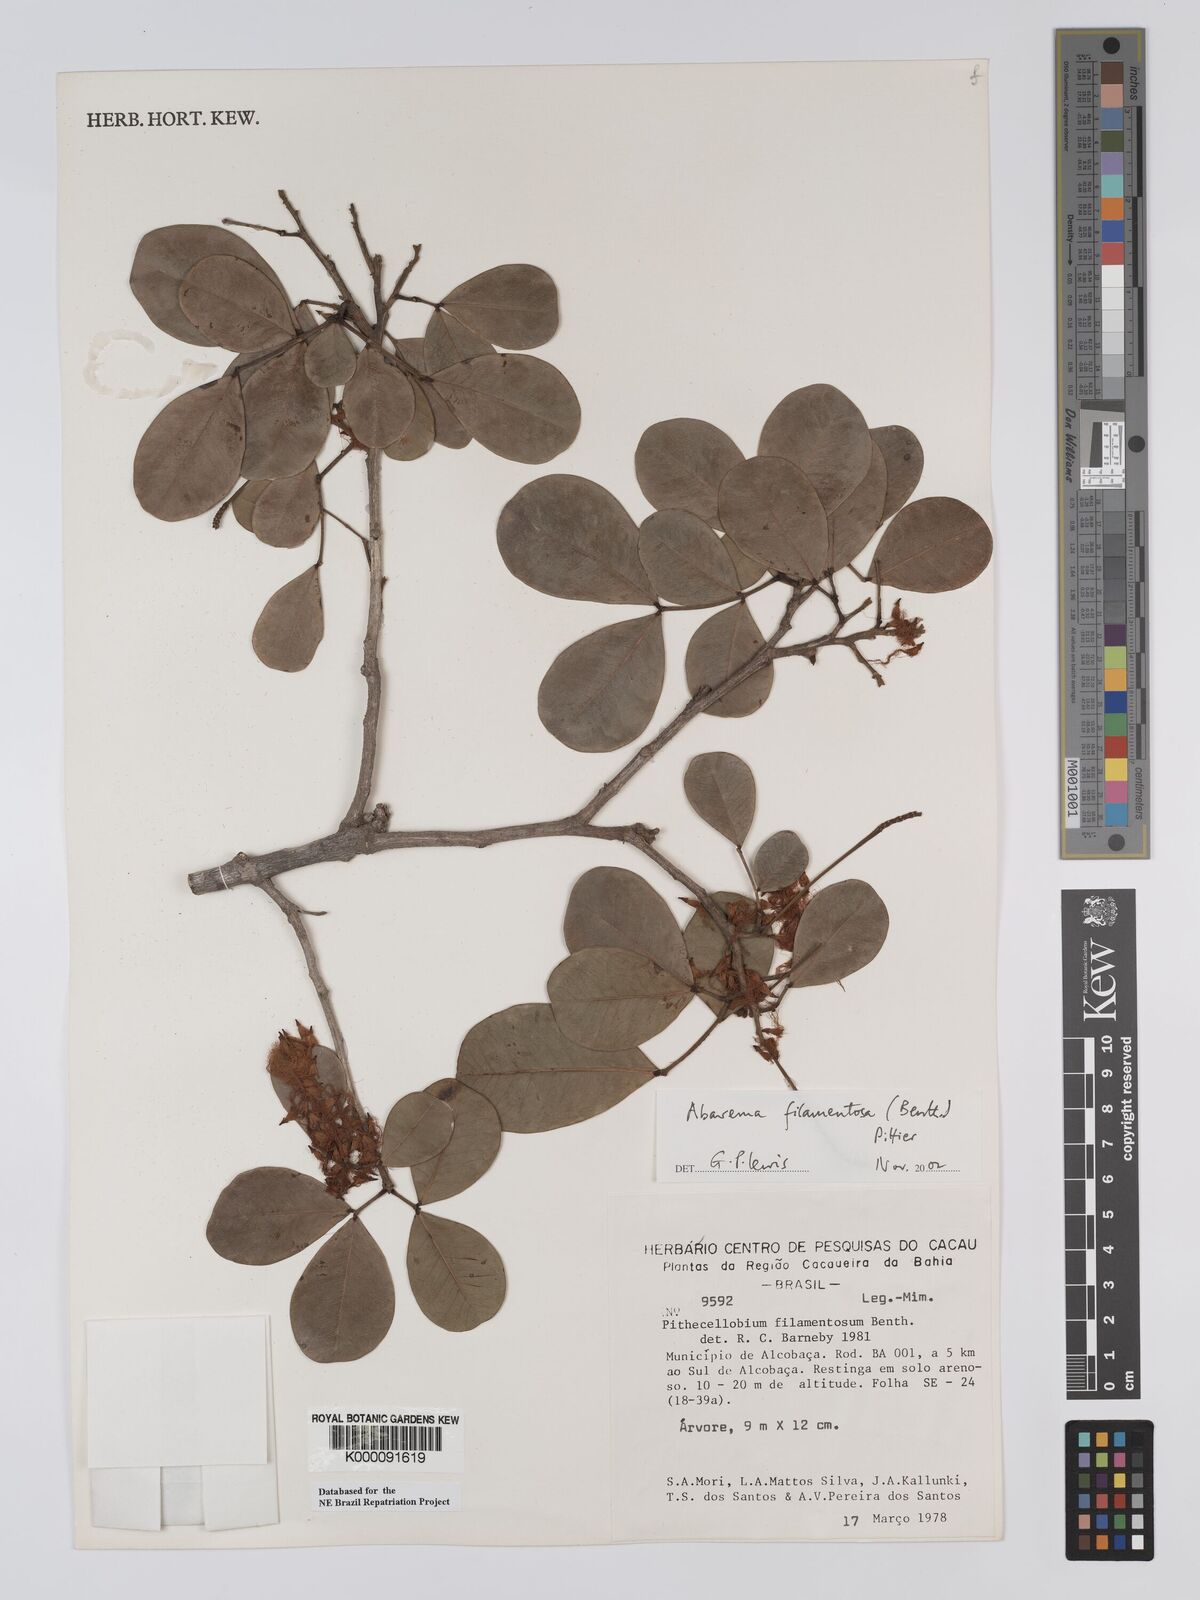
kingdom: Plantae
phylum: Tracheophyta
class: Magnoliopsida
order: Fabales
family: Fabaceae
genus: Jupunba
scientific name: Jupunba filamentosa
